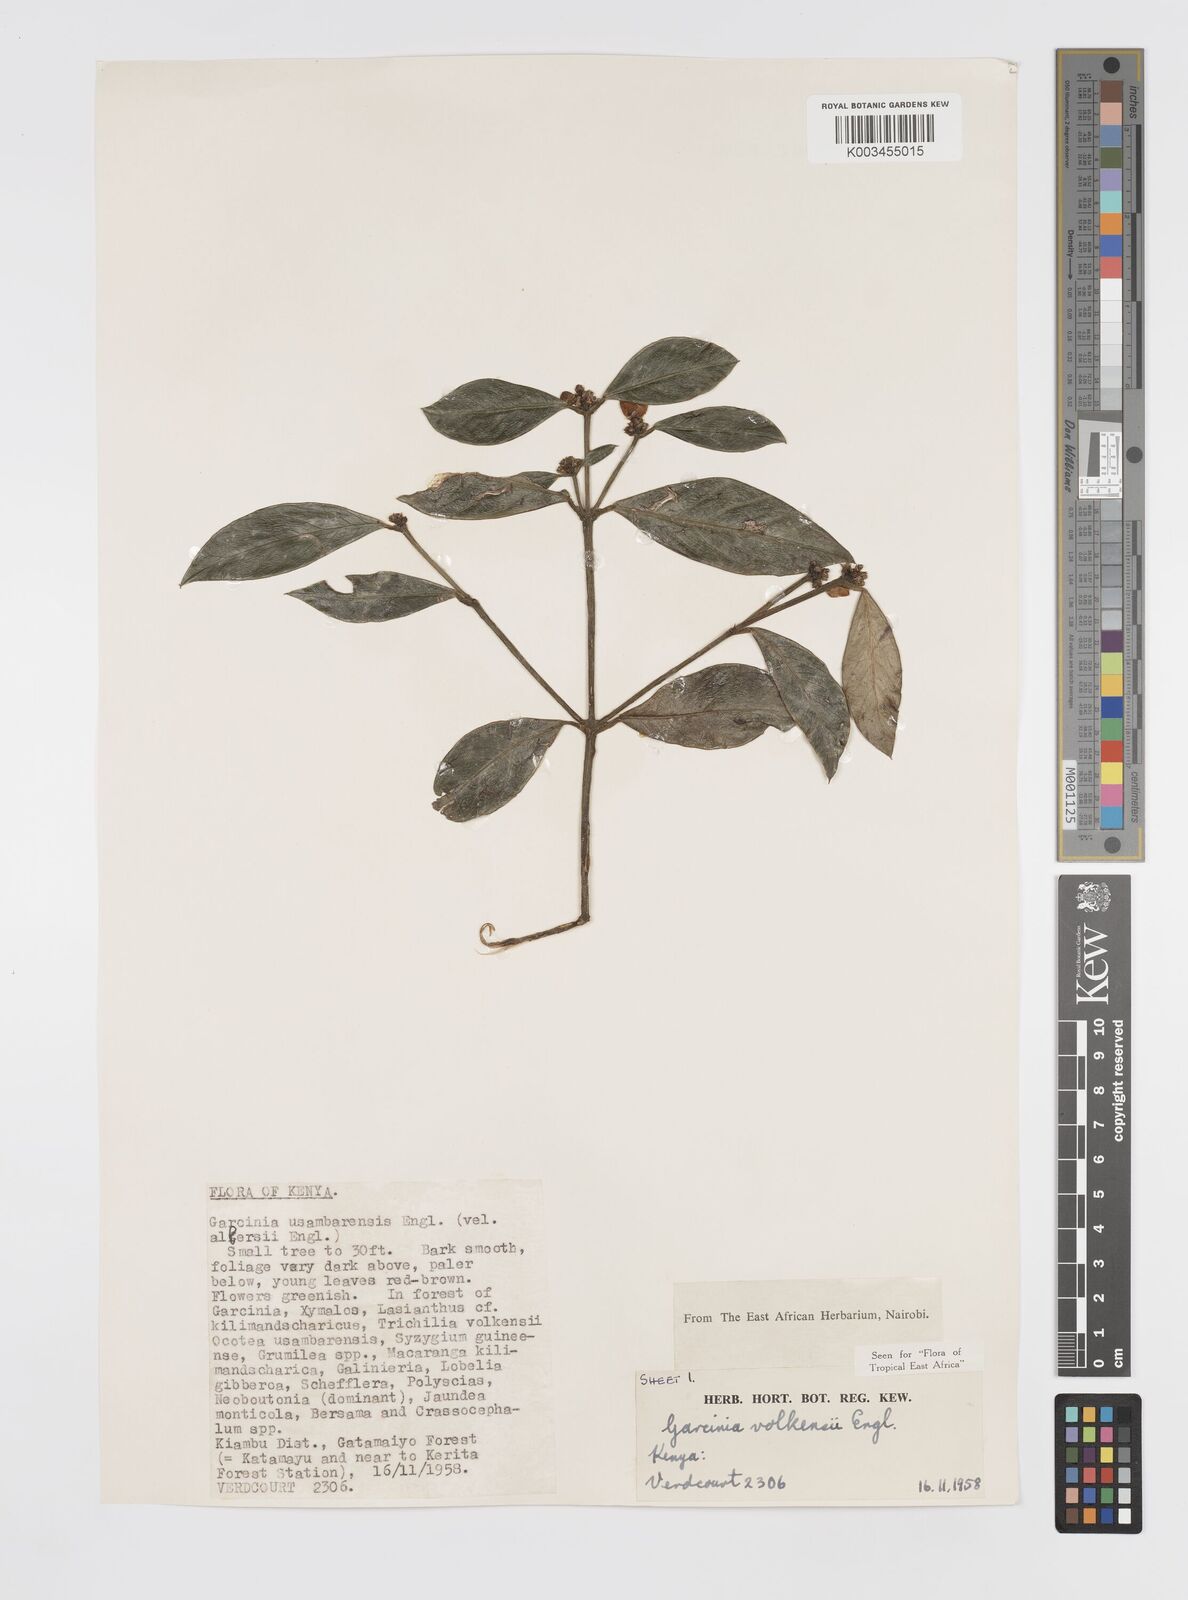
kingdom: Plantae
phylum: Tracheophyta
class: Magnoliopsida
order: Malpighiales
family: Clusiaceae
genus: Garcinia
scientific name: Garcinia volkensii
